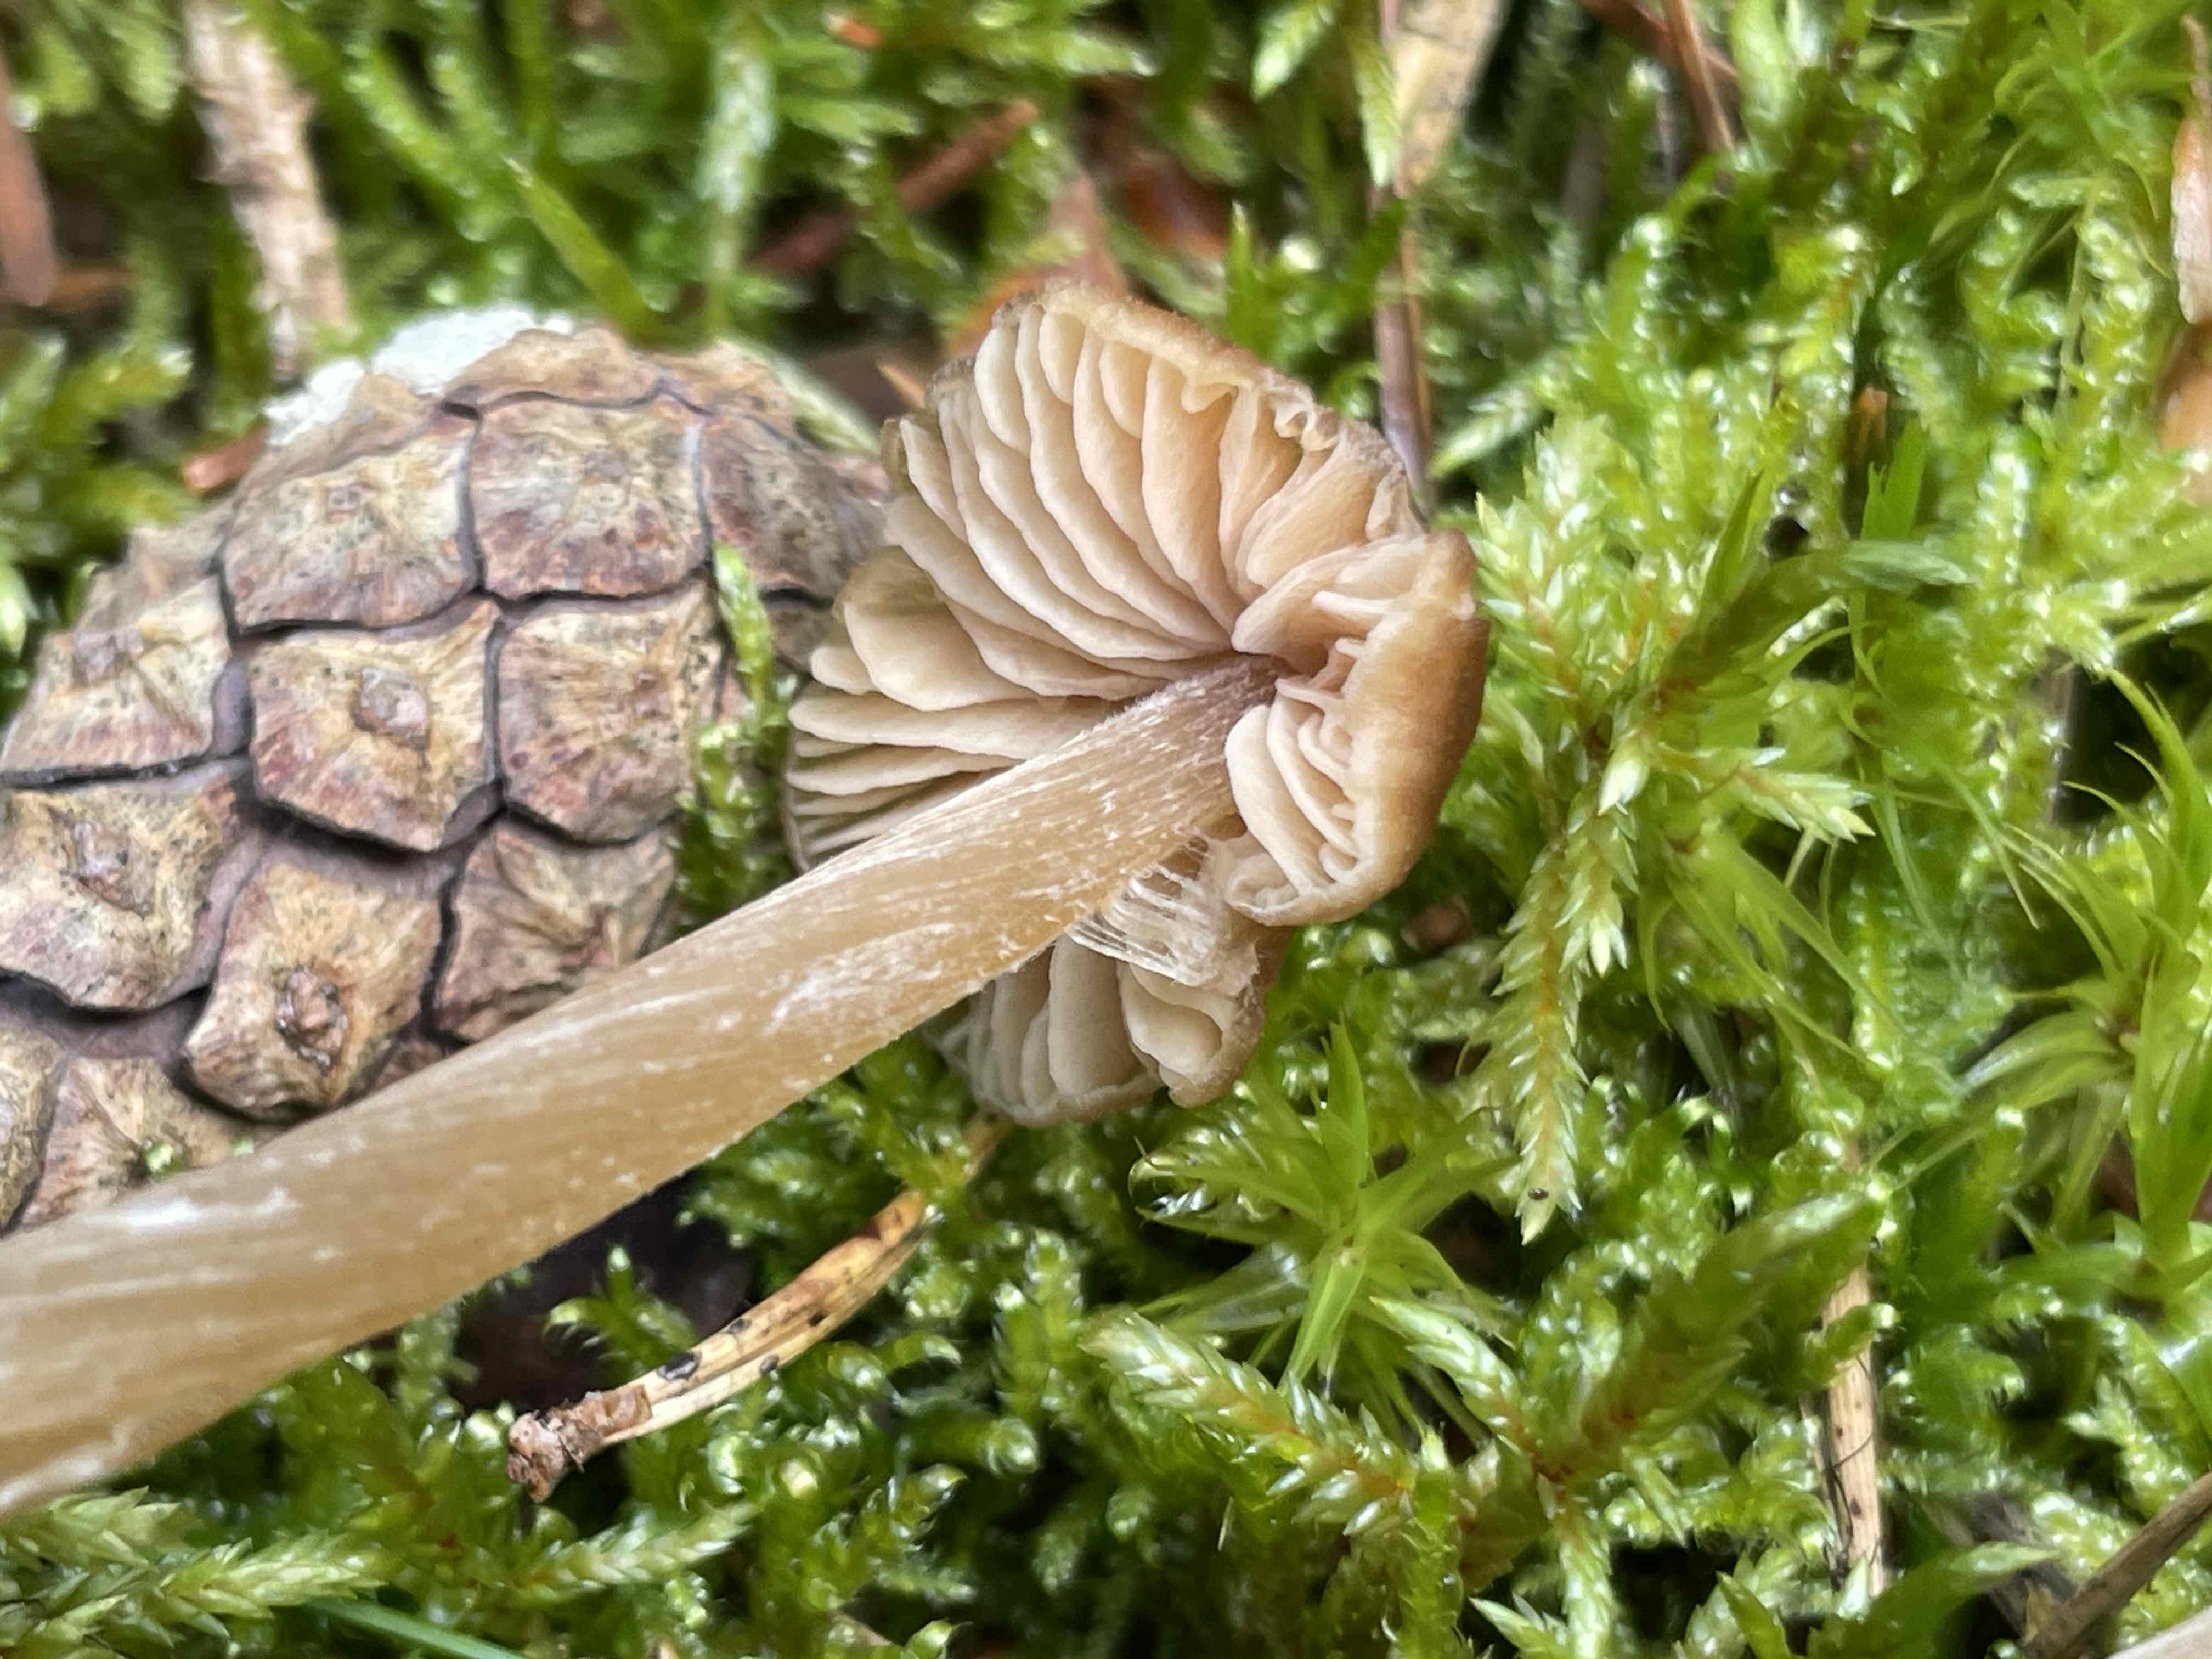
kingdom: Fungi
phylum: Basidiomycota
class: Agaricomycetes
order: Agaricales
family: Entolomataceae
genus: Entoloma
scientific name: Entoloma cetratum
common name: voks-rødblad
